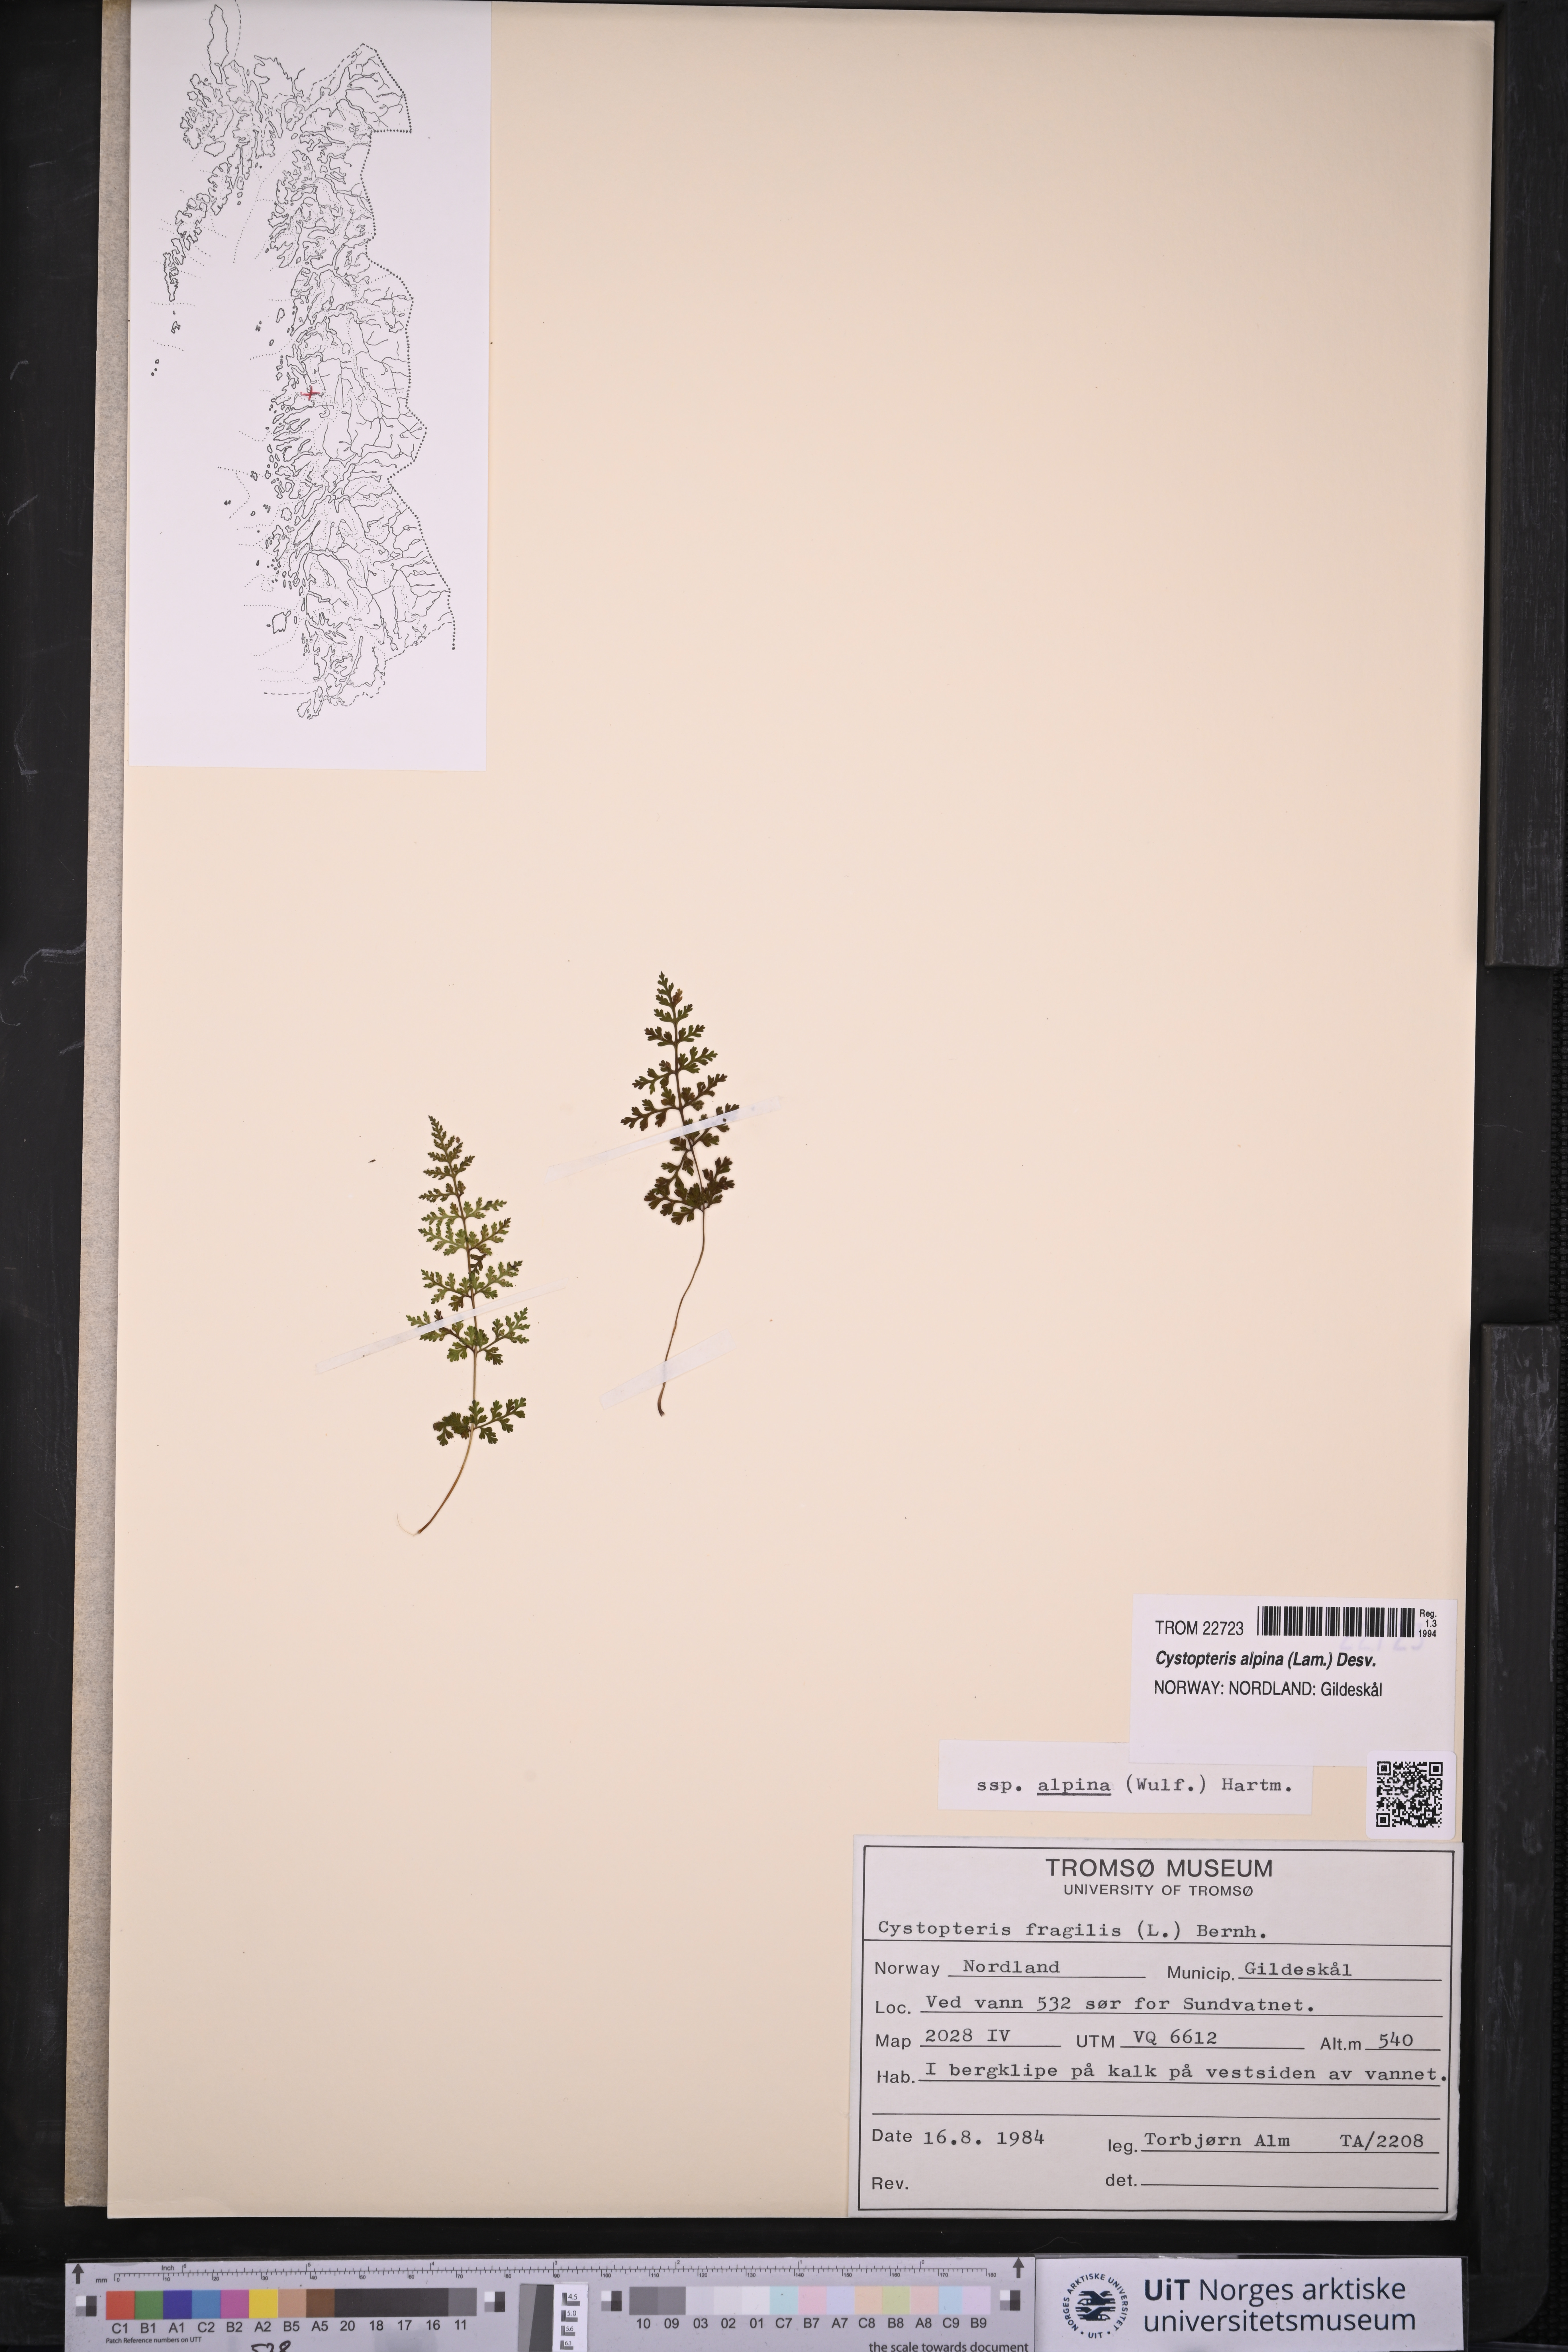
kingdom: Plantae
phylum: Tracheophyta
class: Polypodiopsida
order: Polypodiales
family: Cystopteridaceae
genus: Cystopteris
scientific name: Cystopteris alpina
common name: Alpine bladder-fern
